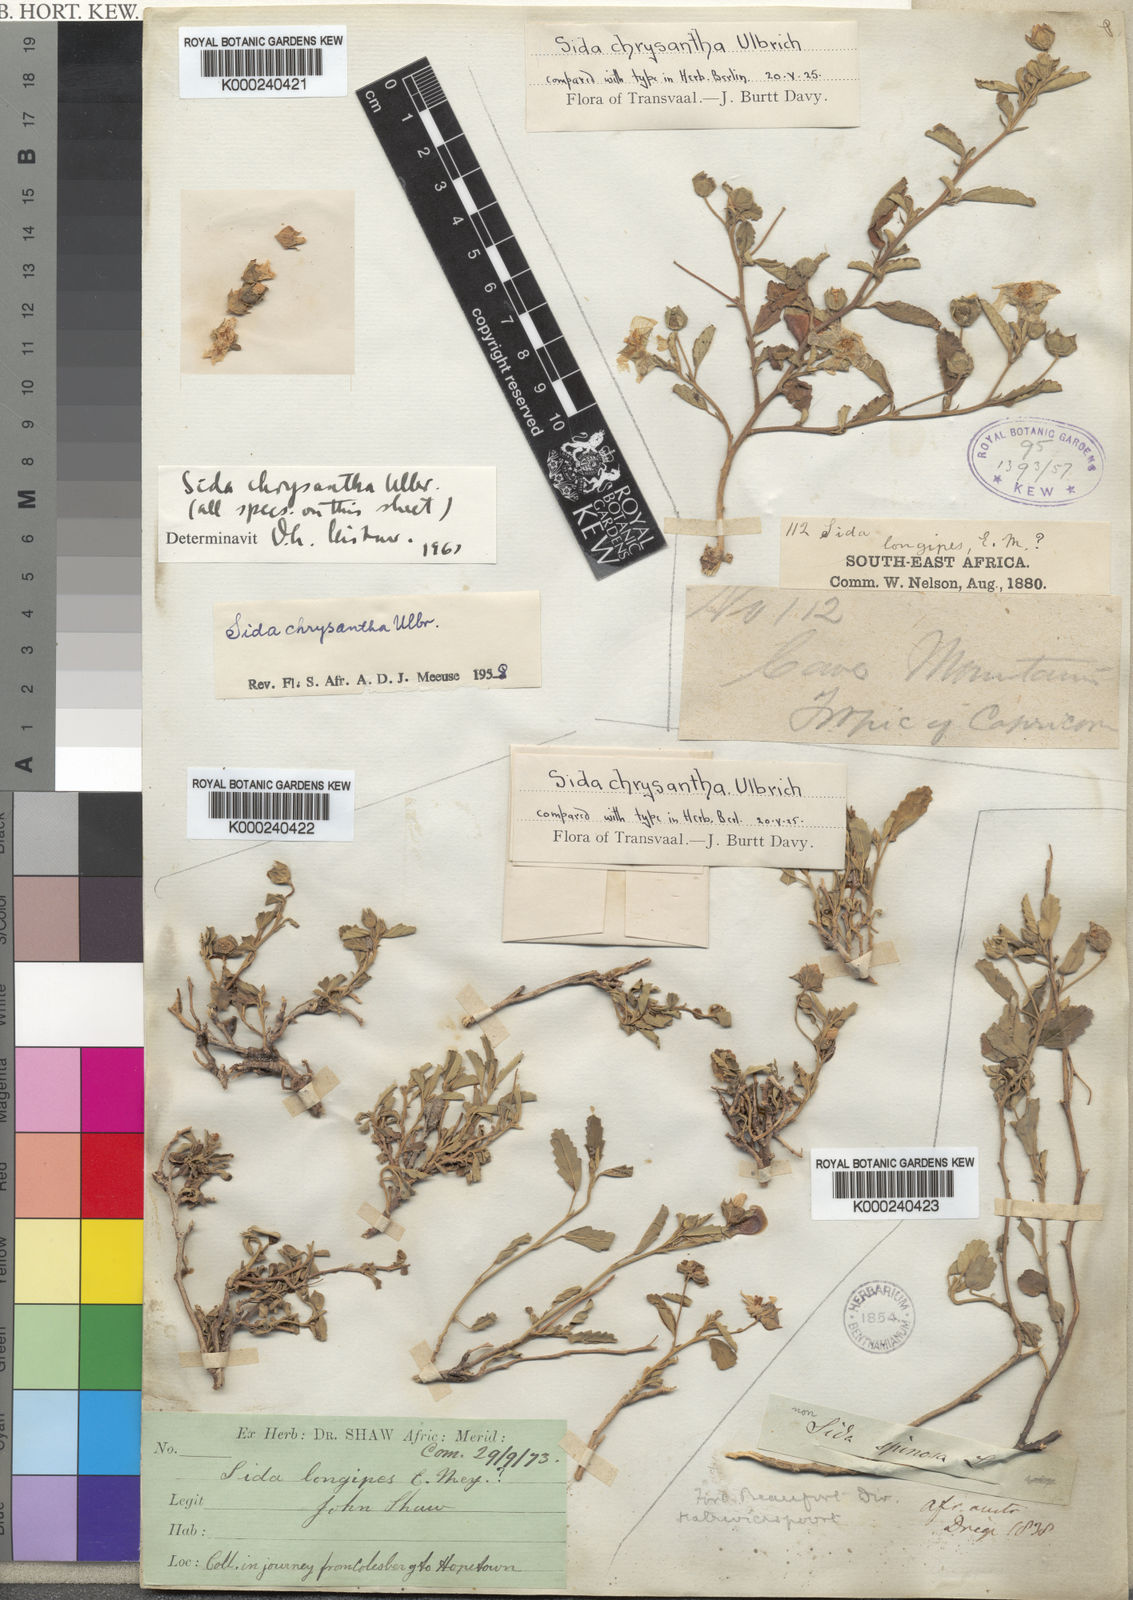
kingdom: Plantae
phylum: Tracheophyta
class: Magnoliopsida
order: Malvales
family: Malvaceae
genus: Sida
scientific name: Sida chrysantha
